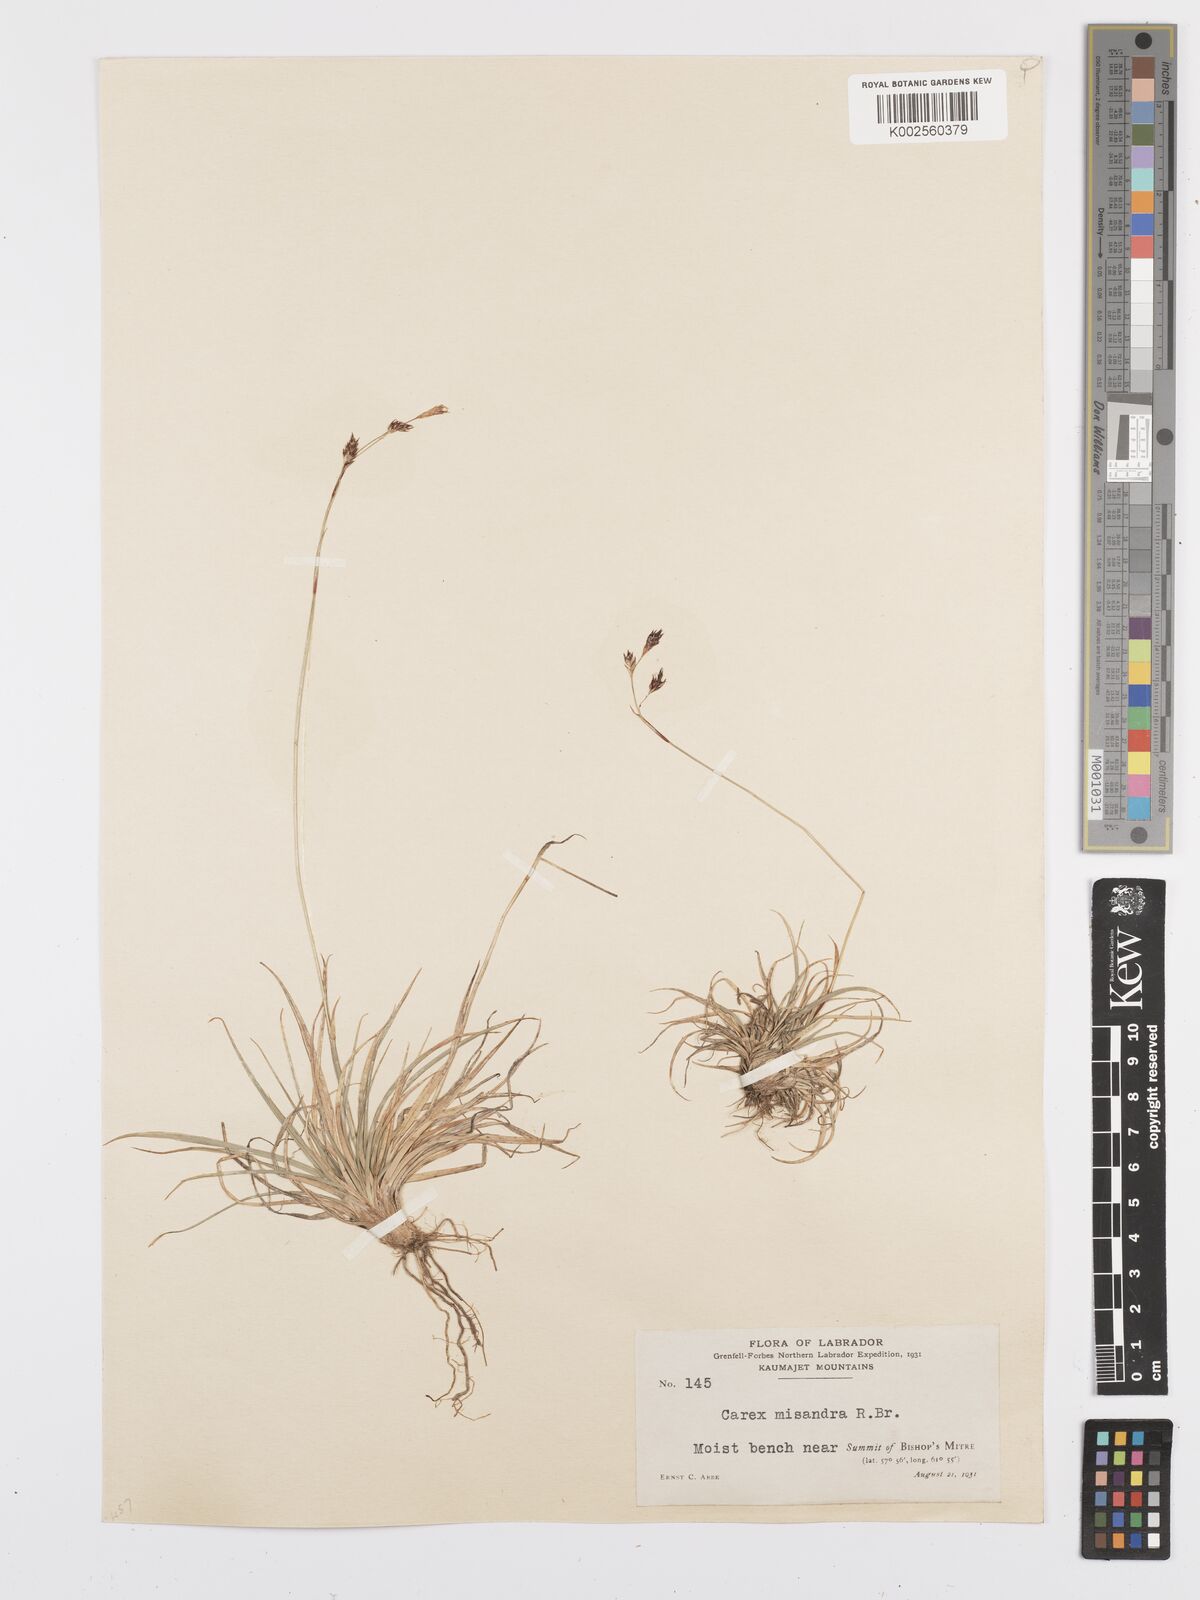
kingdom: Plantae
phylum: Tracheophyta
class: Liliopsida
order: Poales
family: Cyperaceae
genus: Carex
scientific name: Carex fuliginosa
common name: Few-flowered sedge
